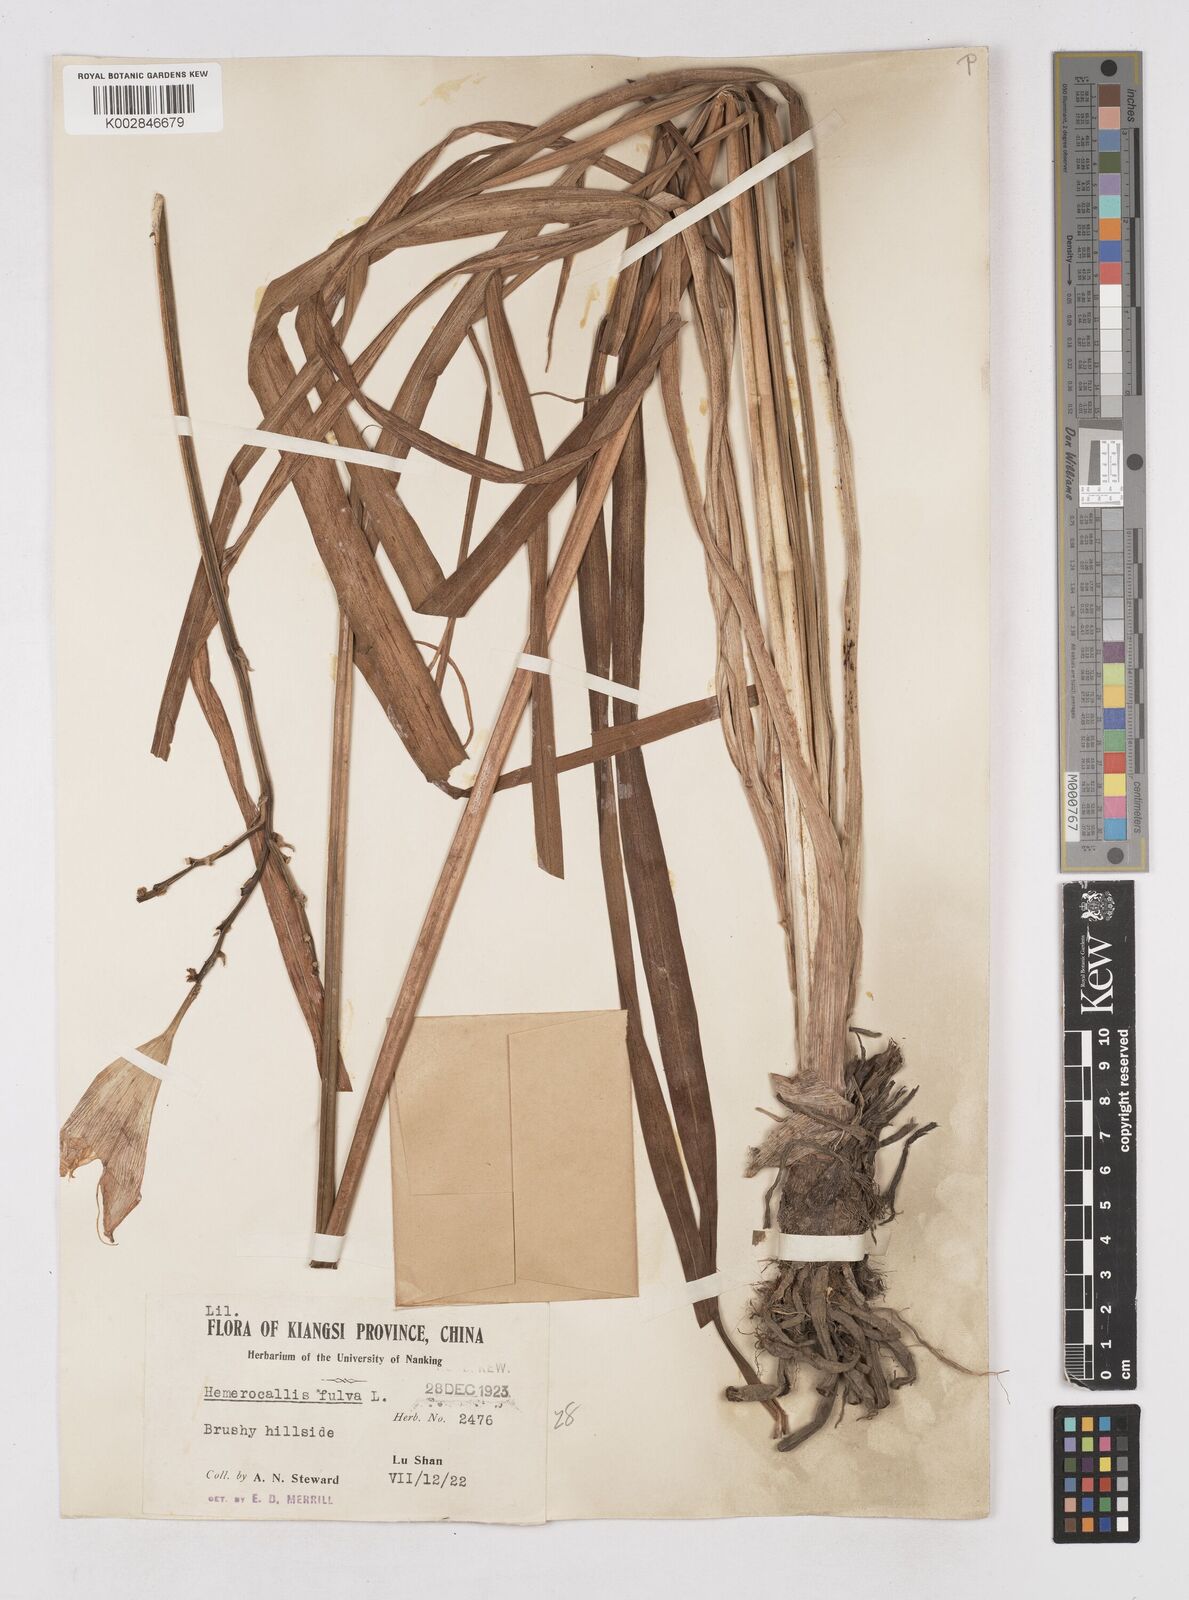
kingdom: Plantae
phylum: Tracheophyta
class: Liliopsida
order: Asparagales
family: Asphodelaceae
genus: Hemerocallis
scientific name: Hemerocallis fulva
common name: Orange day-lily
